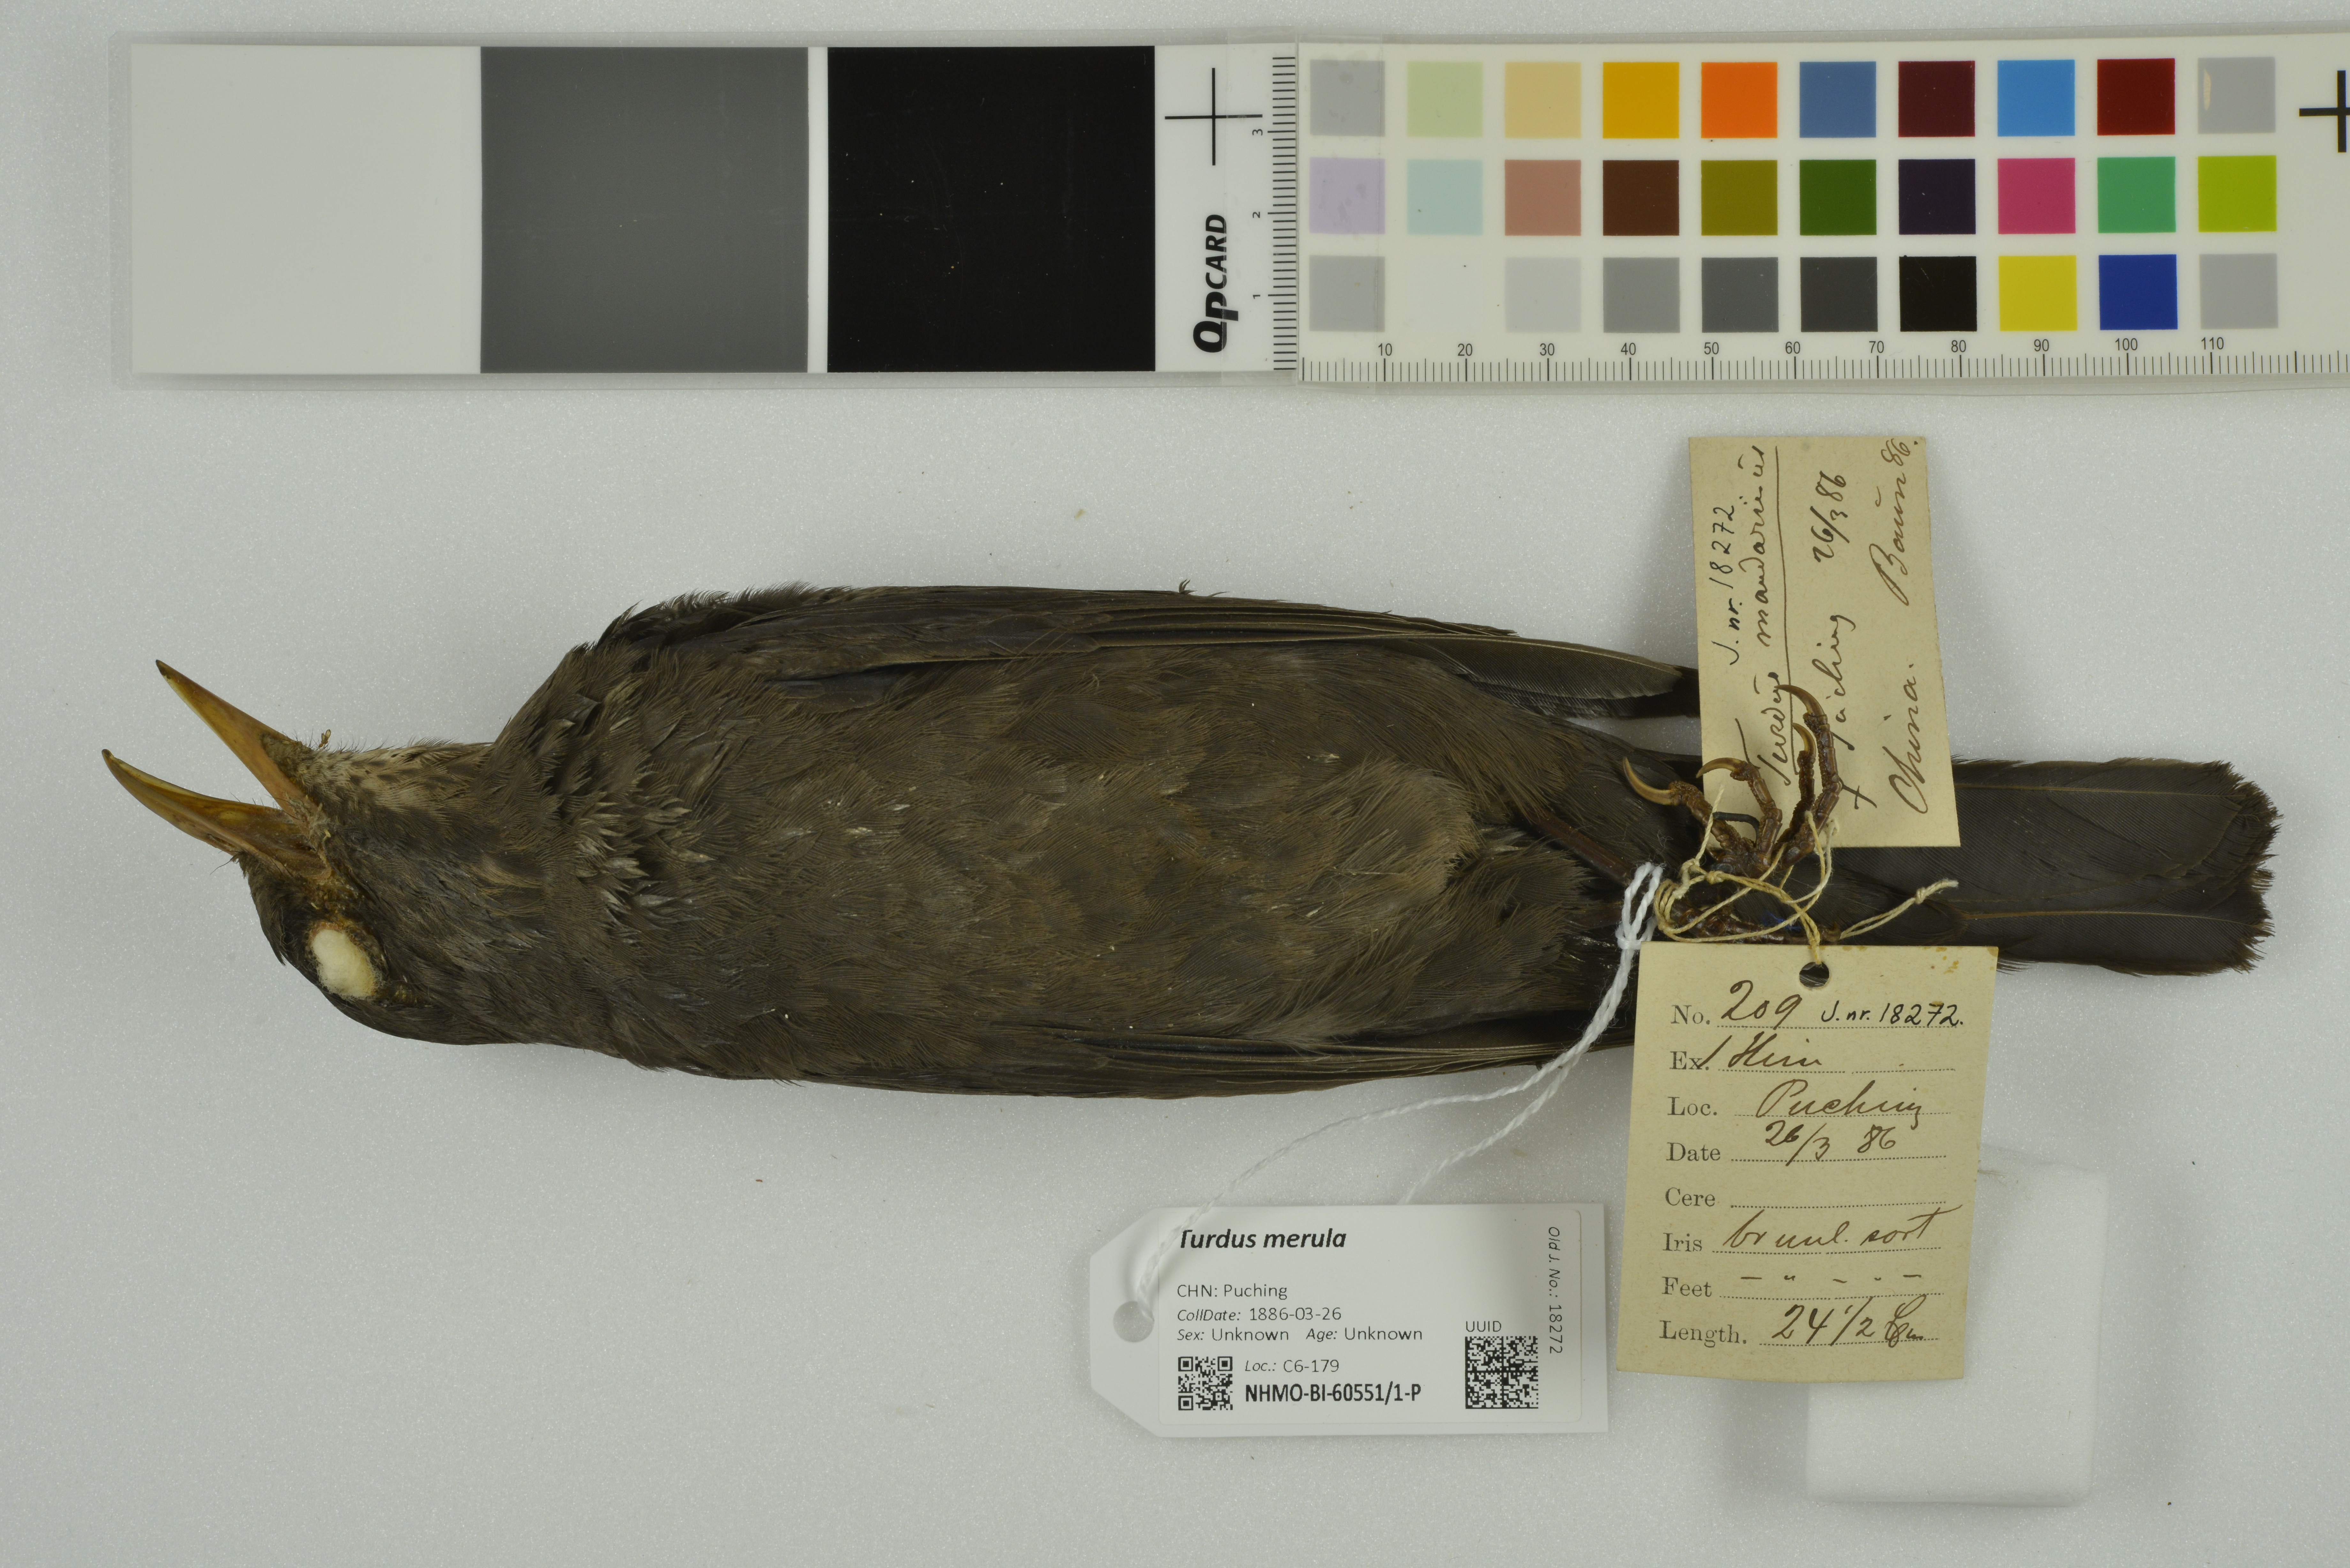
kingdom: Animalia
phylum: Chordata
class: Aves
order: Passeriformes
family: Turdidae
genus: Turdus
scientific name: Turdus mandarinus
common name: Chinese blackbird
